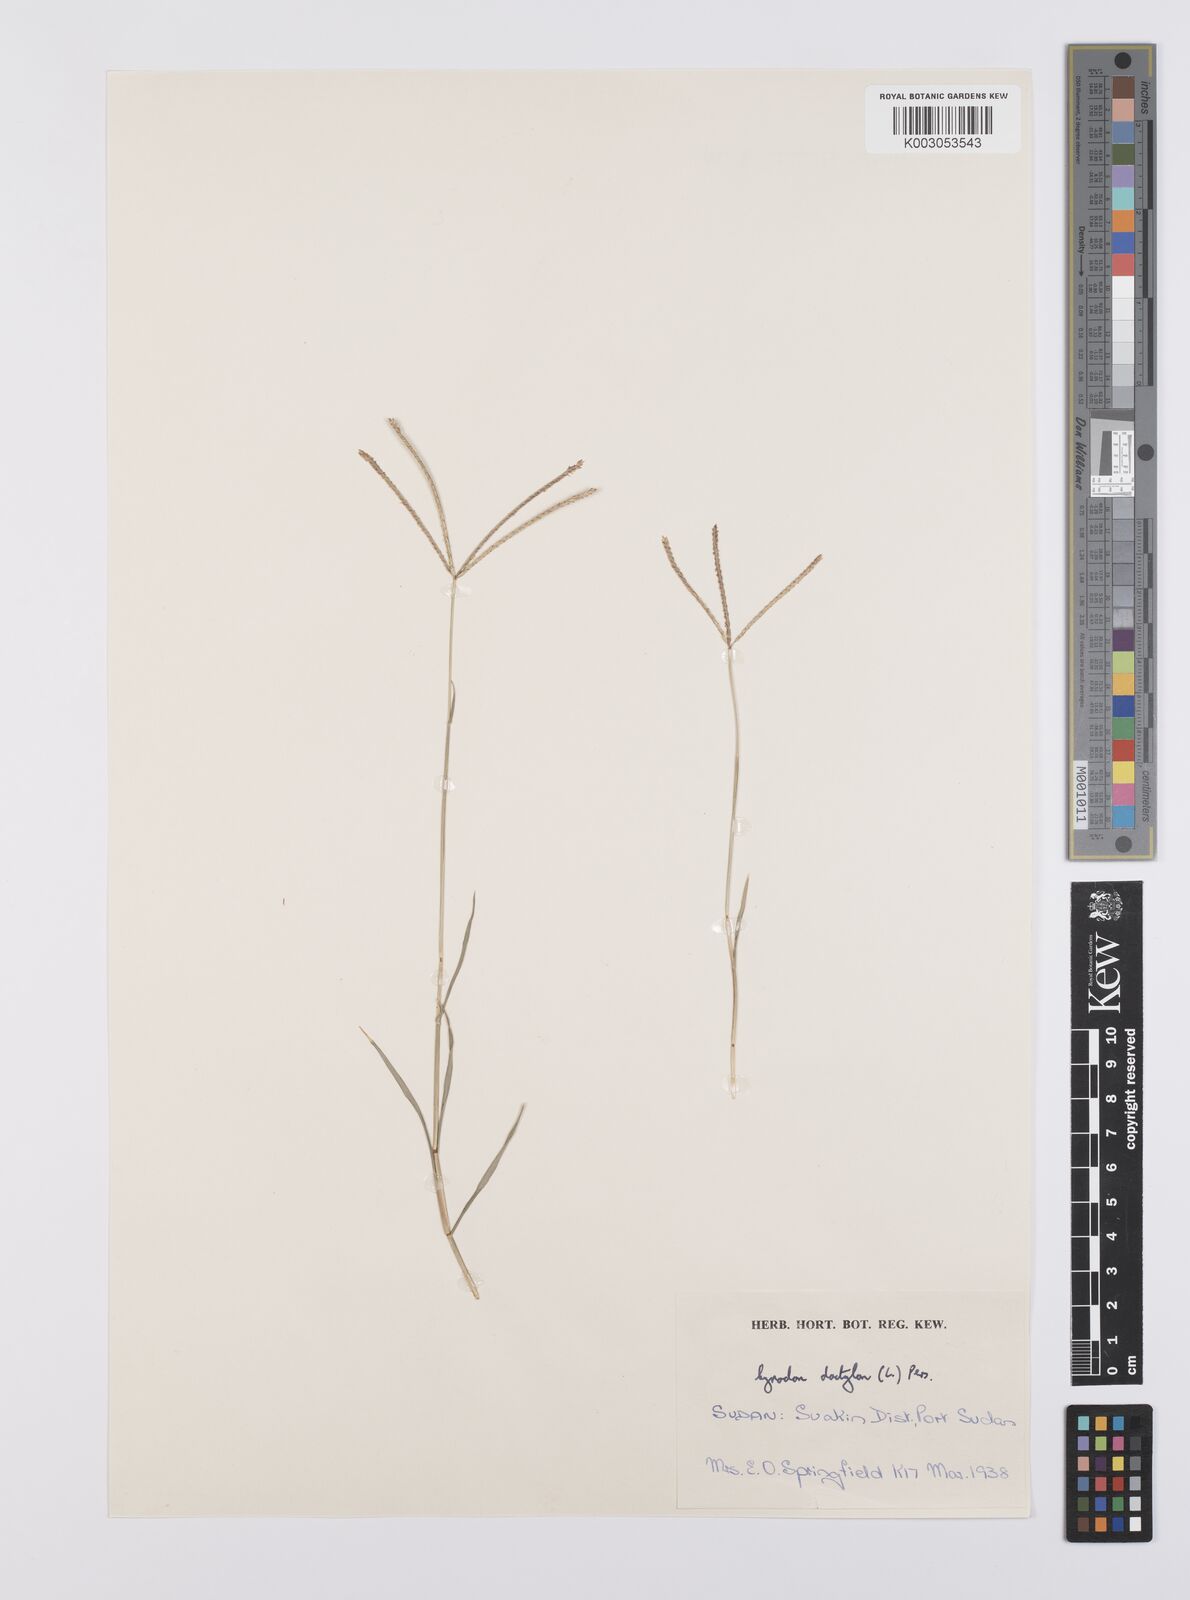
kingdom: Plantae
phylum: Tracheophyta
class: Liliopsida
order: Poales
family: Poaceae
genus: Cynodon
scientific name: Cynodon dactylon
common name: Bermuda grass
